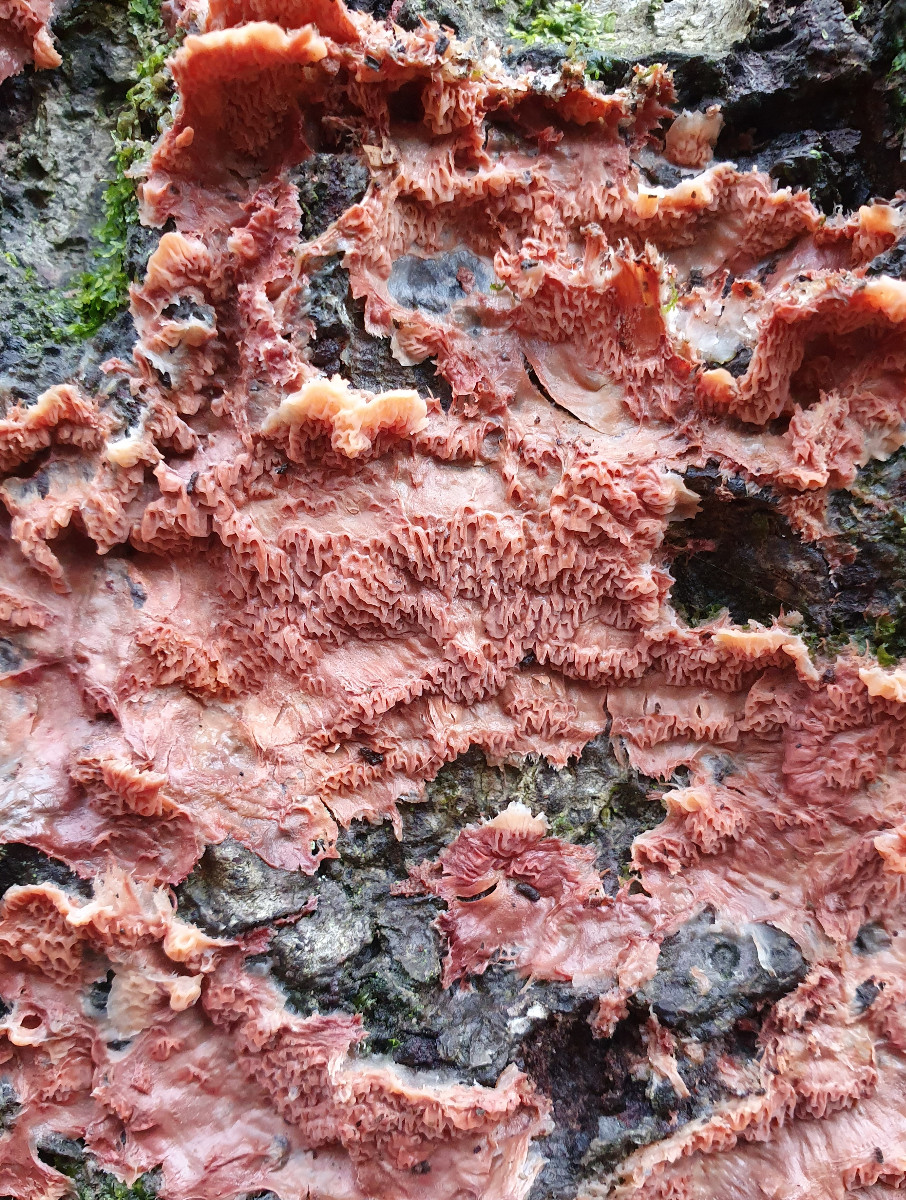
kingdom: Fungi
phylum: Basidiomycota
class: Agaricomycetes
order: Polyporales
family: Meruliaceae
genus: Phlebia
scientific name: Phlebia tremellosa
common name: bævrende åresvamp
